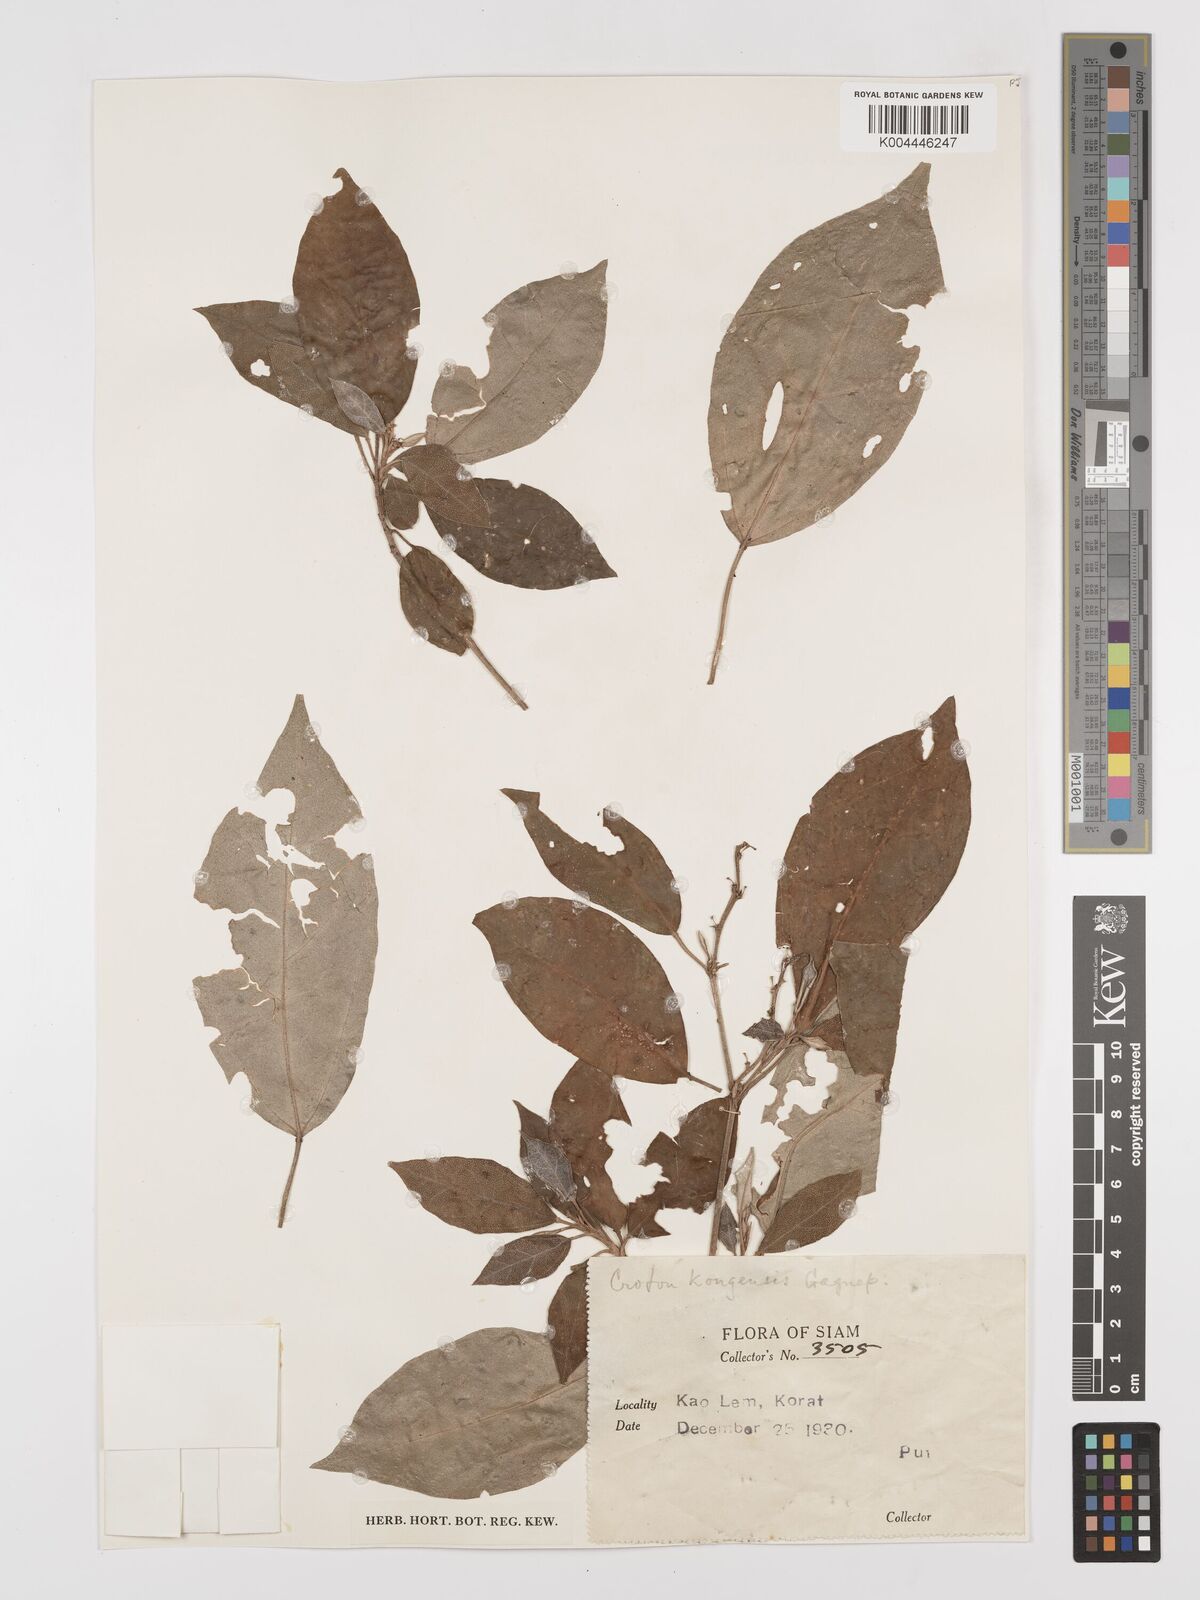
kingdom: Plantae
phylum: Tracheophyta
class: Magnoliopsida
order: Malpighiales
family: Euphorbiaceae
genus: Croton
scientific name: Croton kongensis
